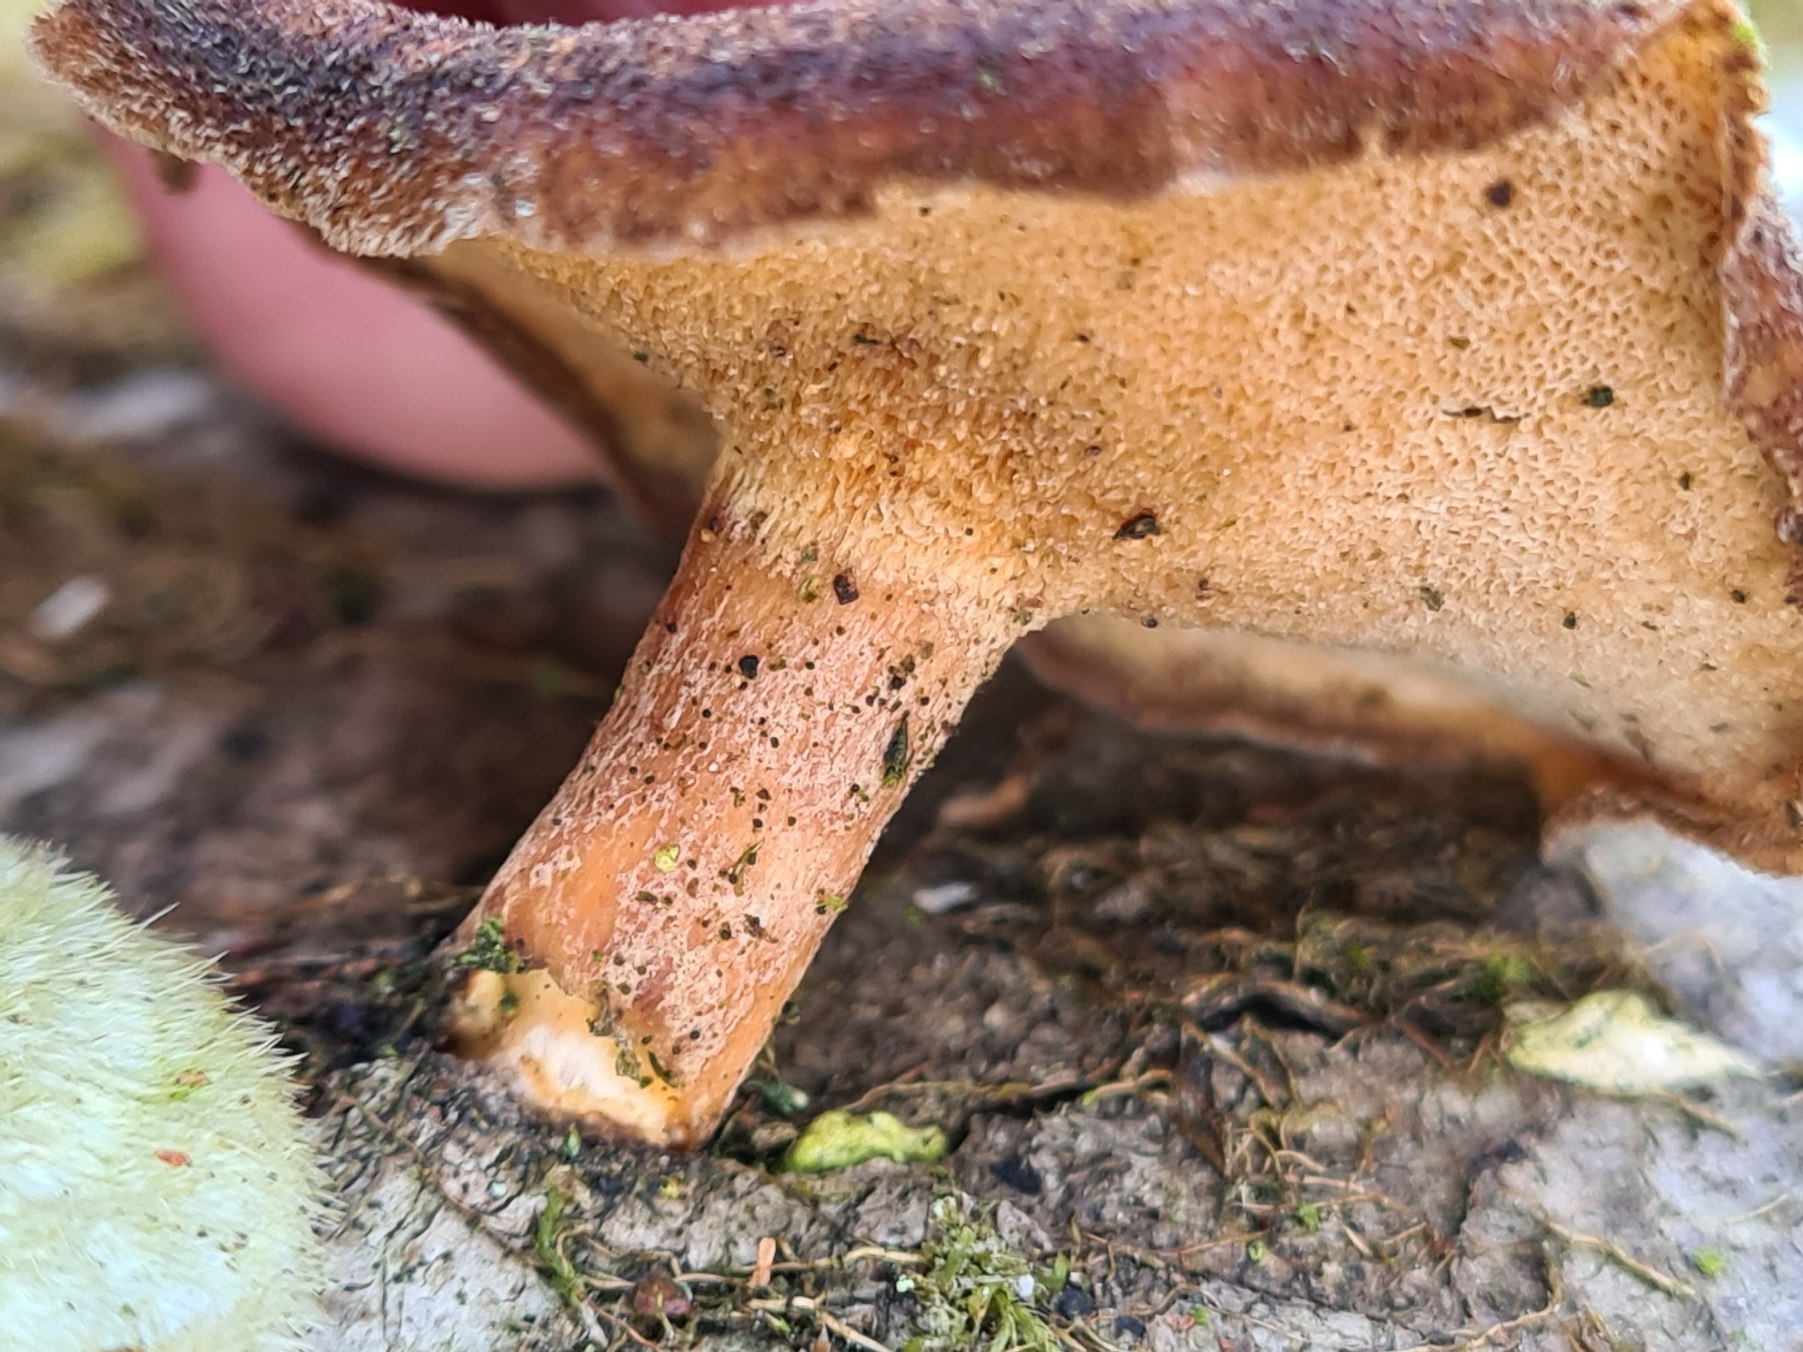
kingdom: Fungi
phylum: Basidiomycota
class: Agaricomycetes
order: Polyporales
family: Polyporaceae
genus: Lentinus
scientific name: Lentinus brumalis
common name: Vinter-stilkporesvamp
